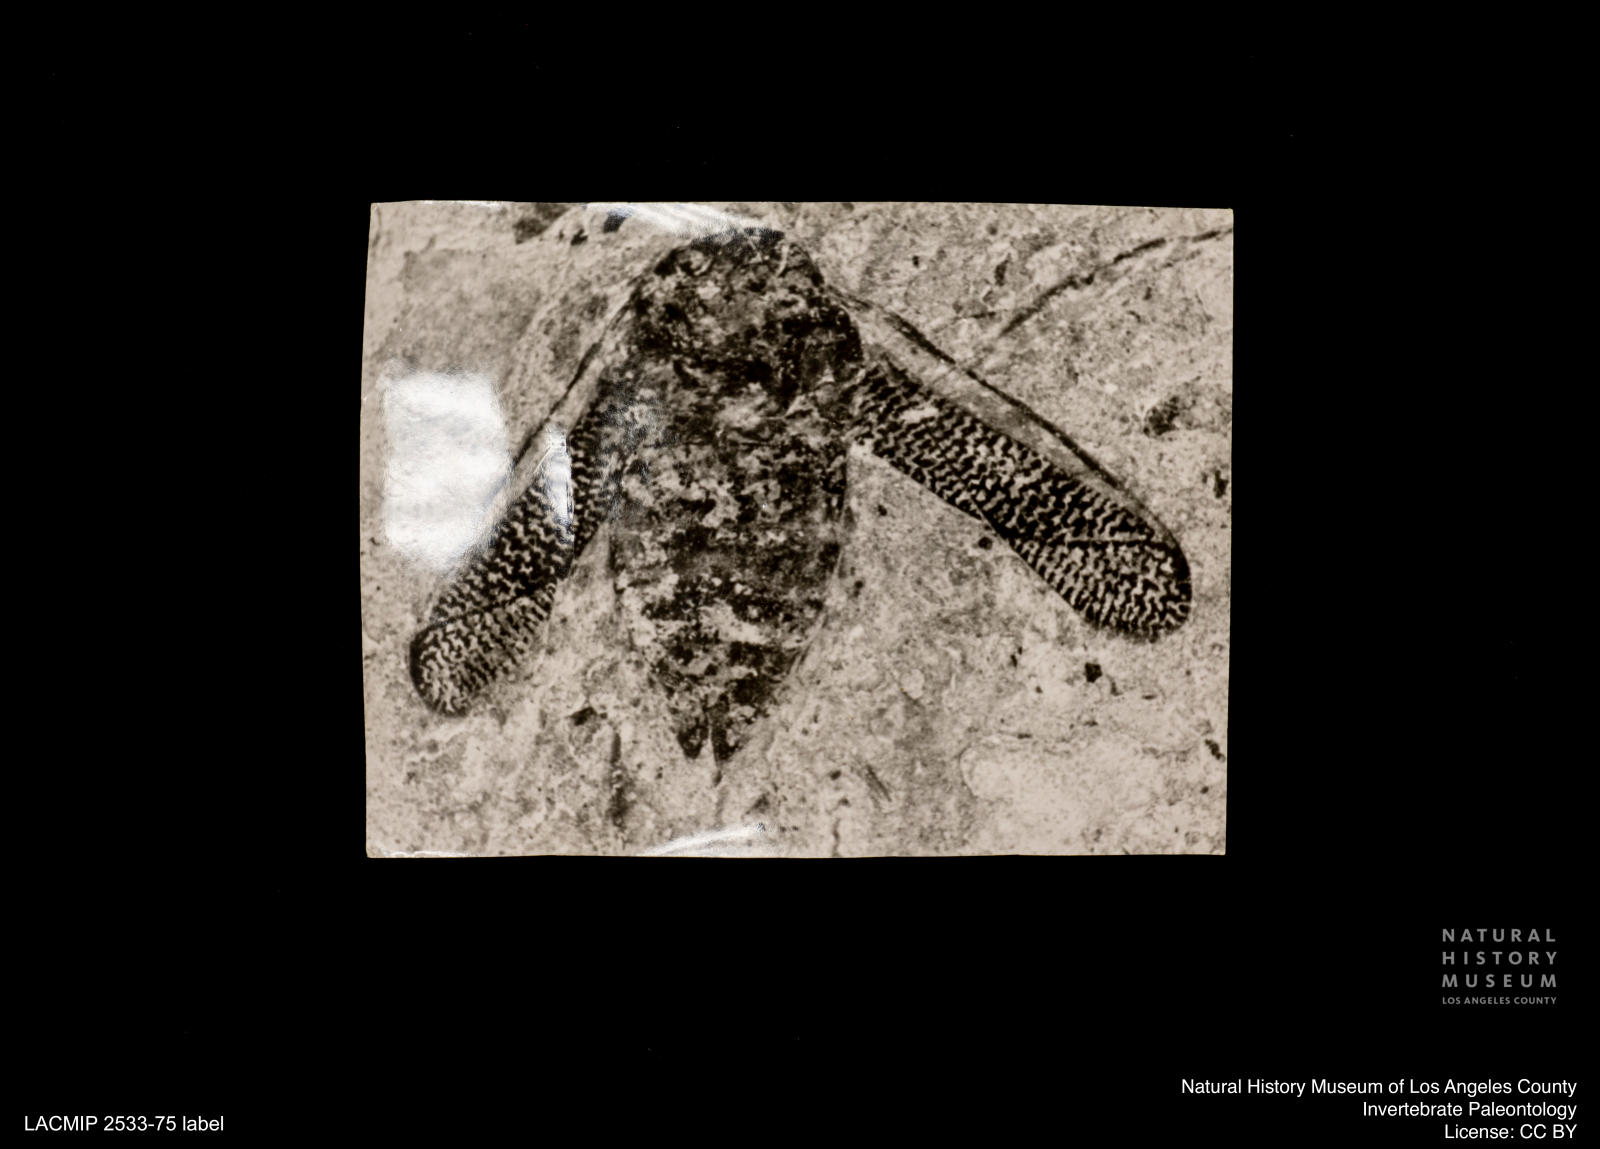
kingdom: Animalia
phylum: Arthropoda
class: Insecta
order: Hemiptera
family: Corixidae
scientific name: Corixidae
